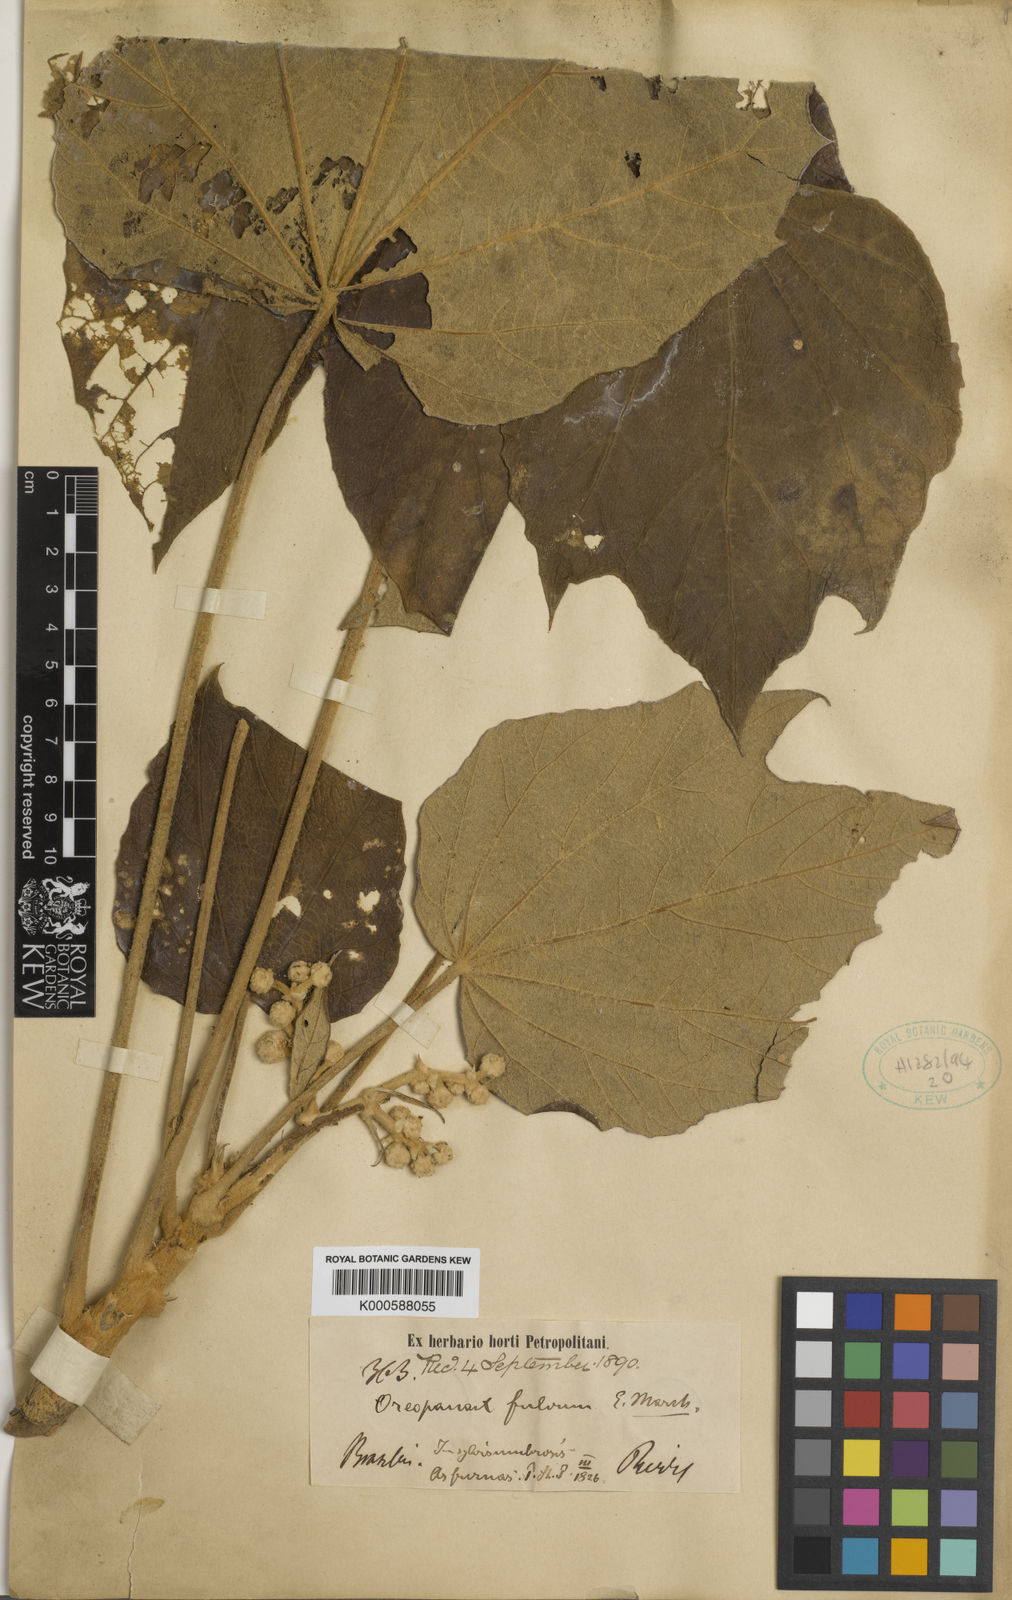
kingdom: Plantae
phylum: Tracheophyta
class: Magnoliopsida
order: Apiales
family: Araliaceae
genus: Oreopanax
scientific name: Oreopanax fulvus
